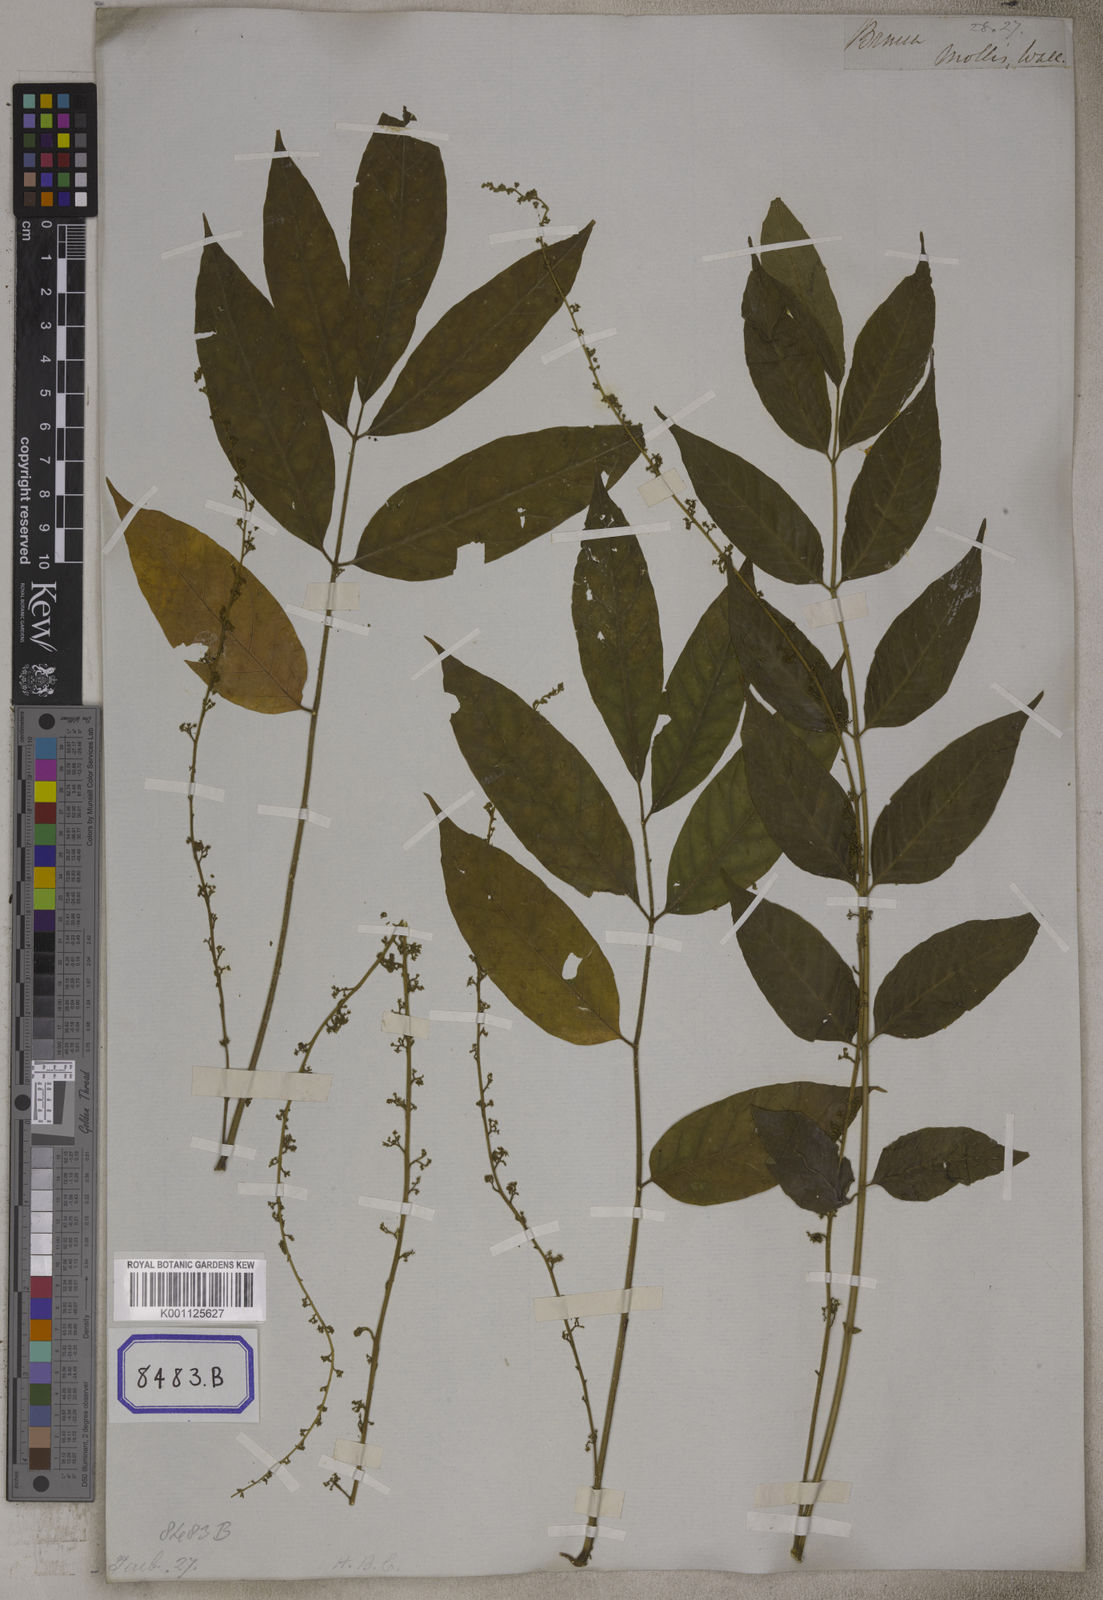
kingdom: Plantae
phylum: Tracheophyta
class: Magnoliopsida
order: Sapindales
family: Simaroubaceae
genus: Brucea
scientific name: Brucea
